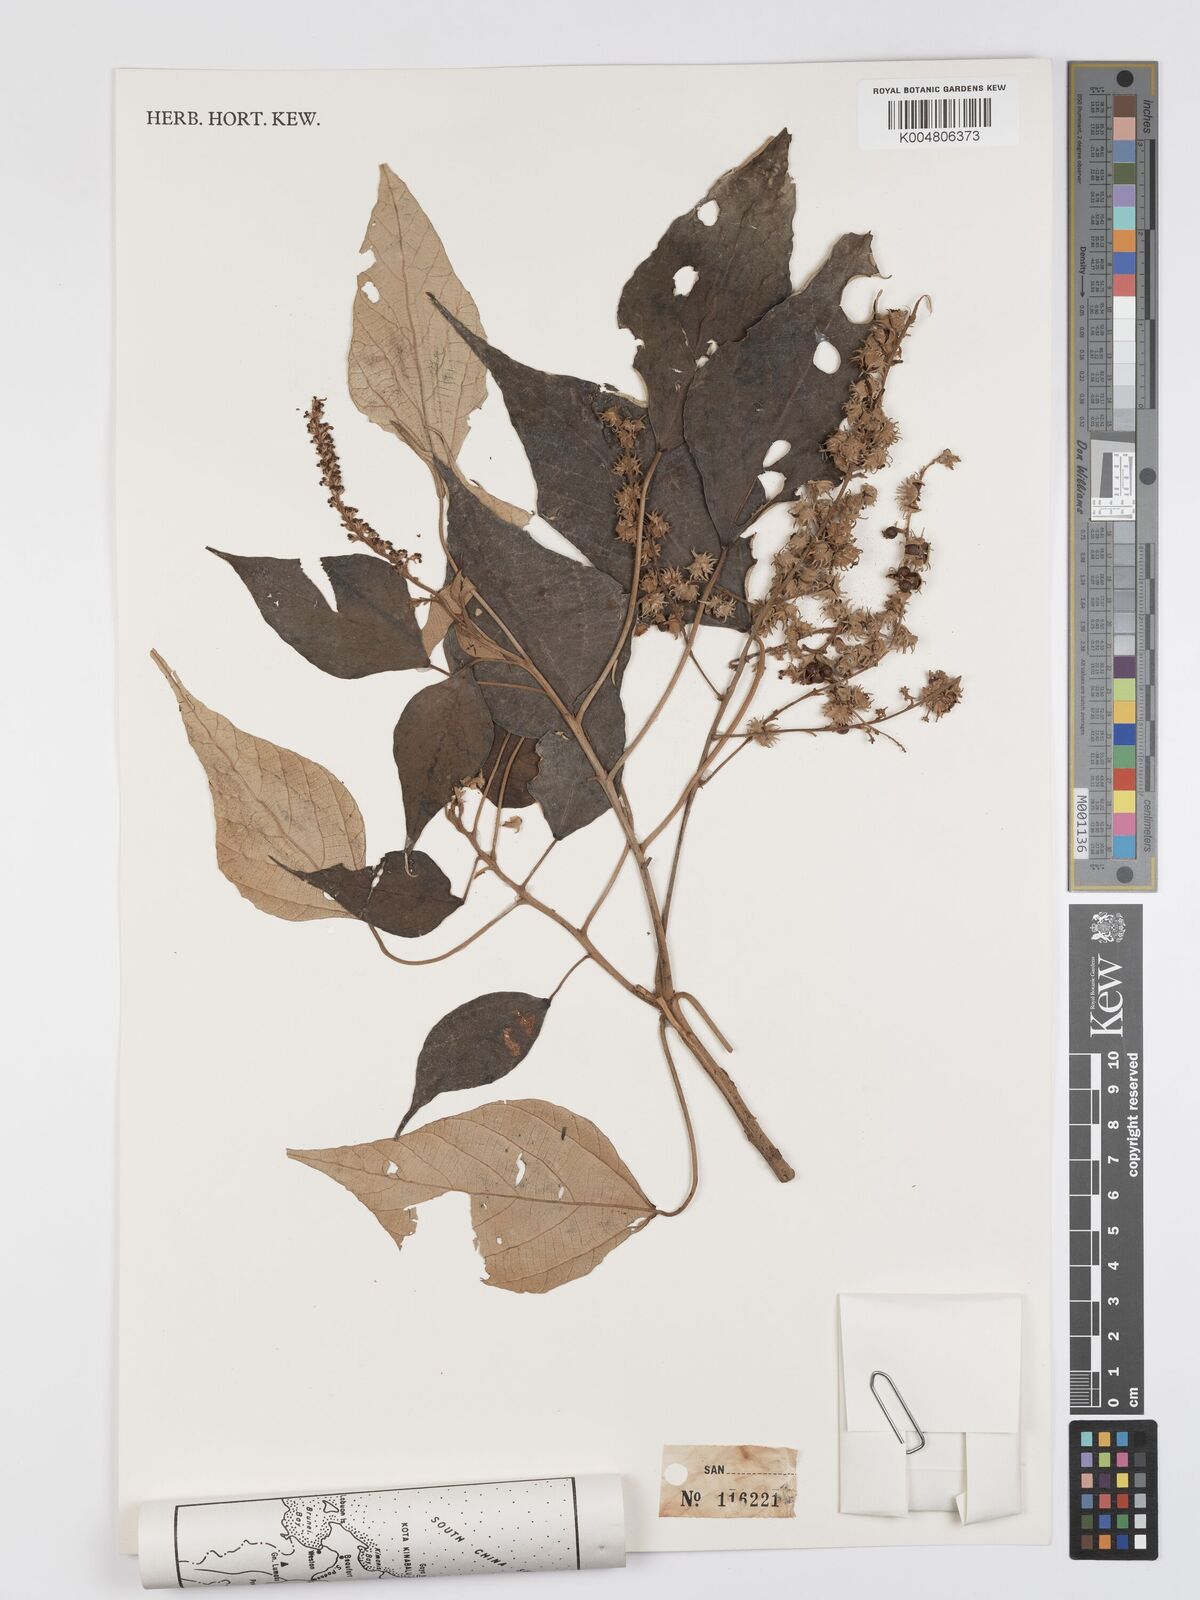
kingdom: Plantae
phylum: Tracheophyta
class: Magnoliopsida
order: Malpighiales
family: Euphorbiaceae
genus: Mallotus
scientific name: Mallotus paniculatus
